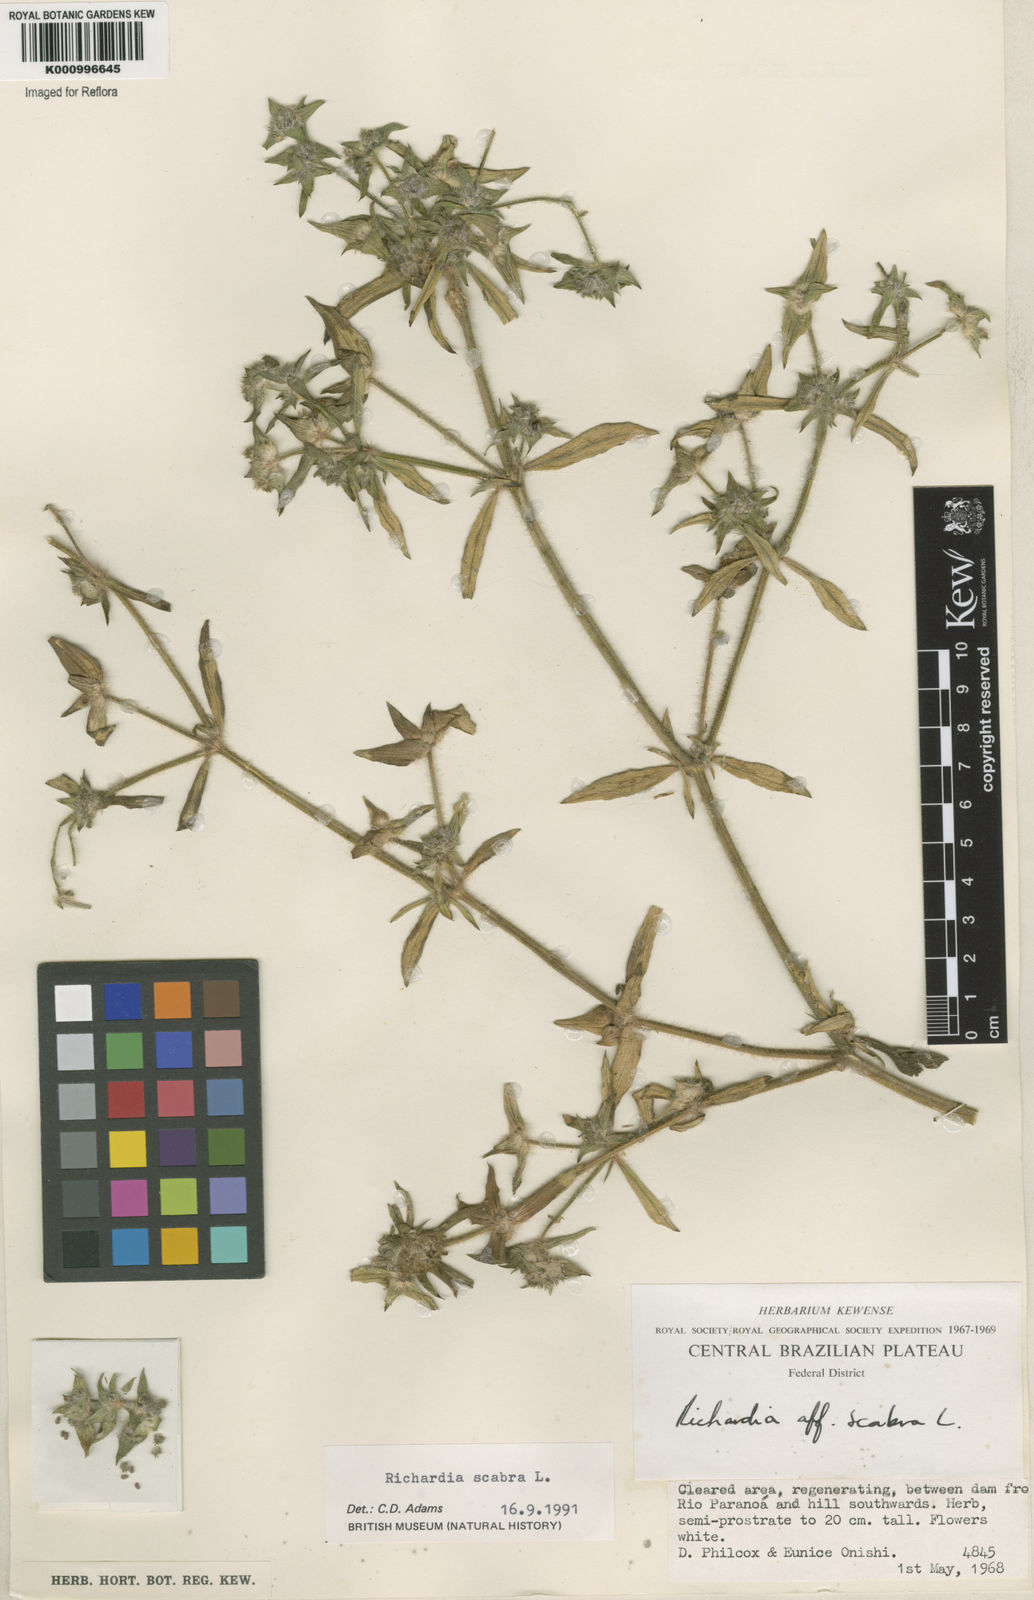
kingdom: Plantae
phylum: Tracheophyta
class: Magnoliopsida
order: Gentianales
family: Rubiaceae
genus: Richardia
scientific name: Richardia scabra
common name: Rough mexican clover
